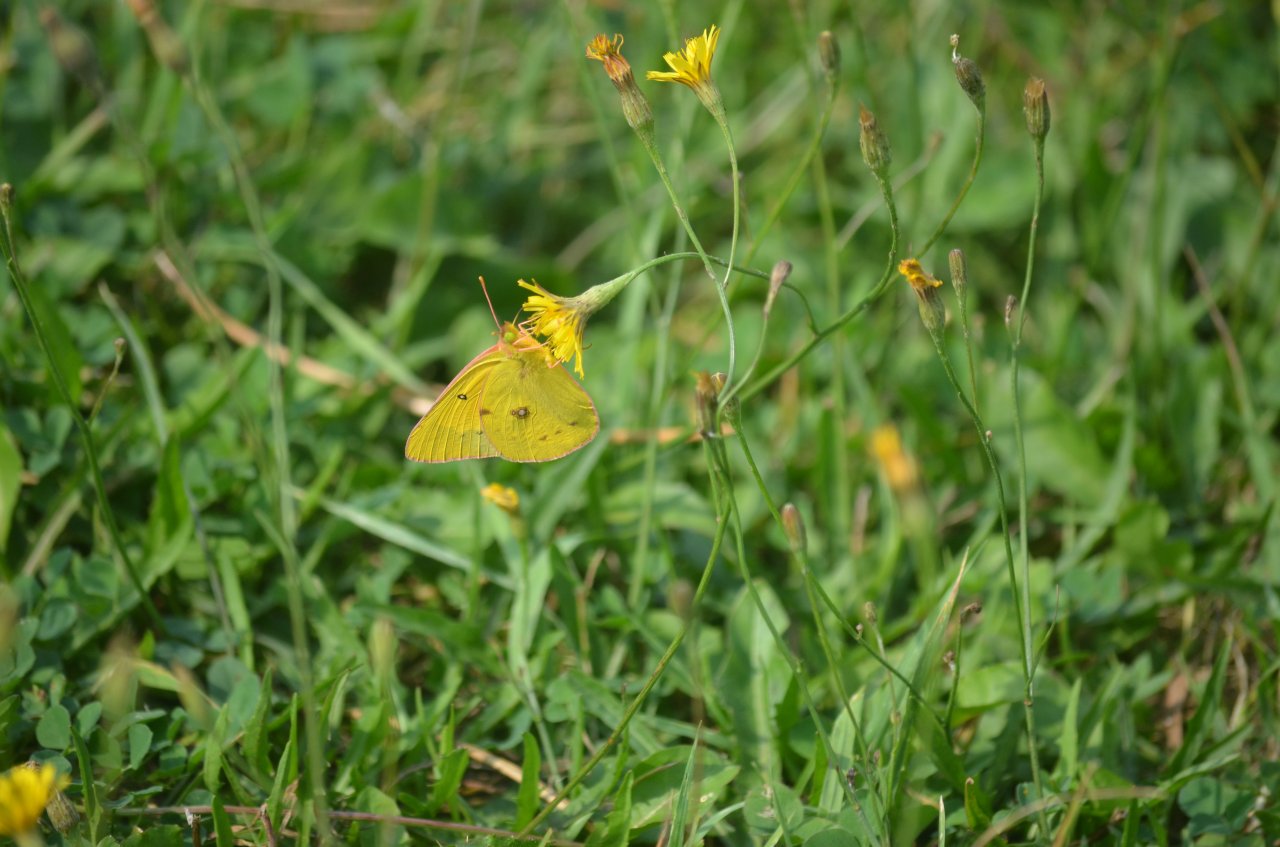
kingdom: Animalia
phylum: Arthropoda
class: Insecta
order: Lepidoptera
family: Pieridae
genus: Colias
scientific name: Colias eurytheme
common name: Orange Sulphur
